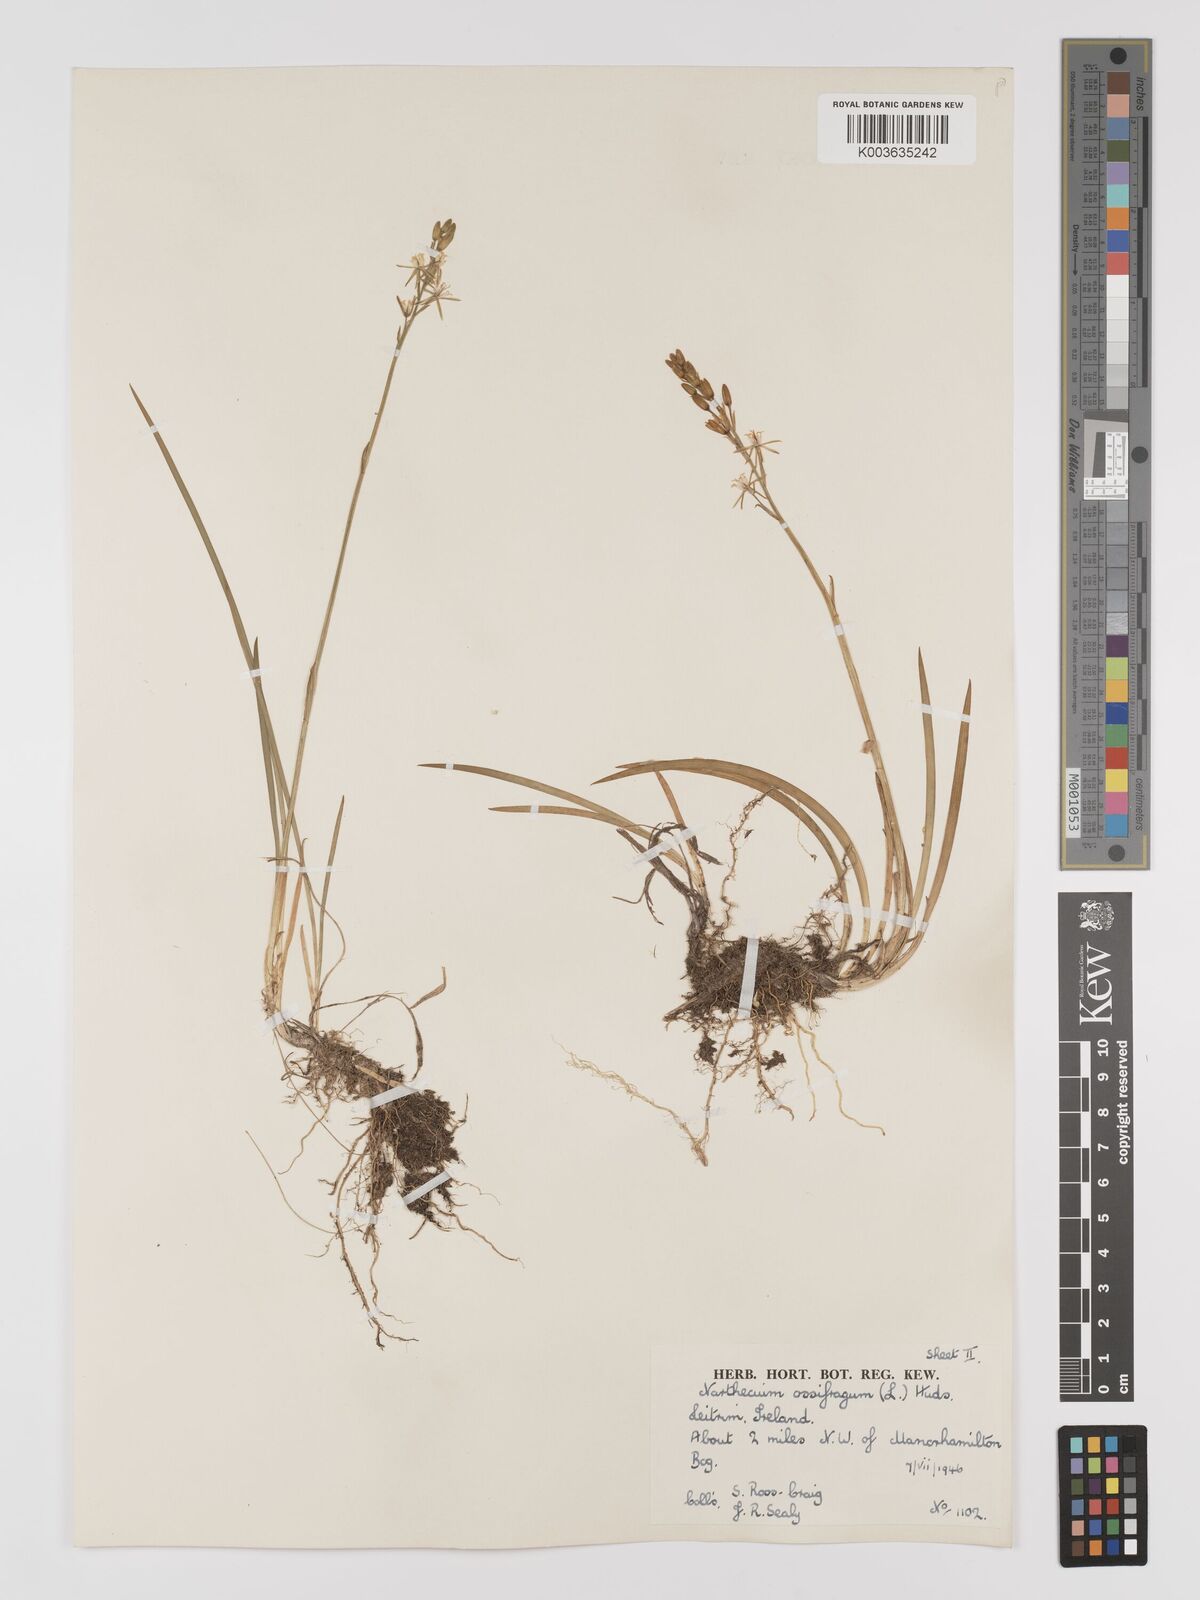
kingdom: Plantae
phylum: Tracheophyta
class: Liliopsida
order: Dioscoreales
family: Nartheciaceae
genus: Narthecium
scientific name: Narthecium ossifragum
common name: Bog asphodel
